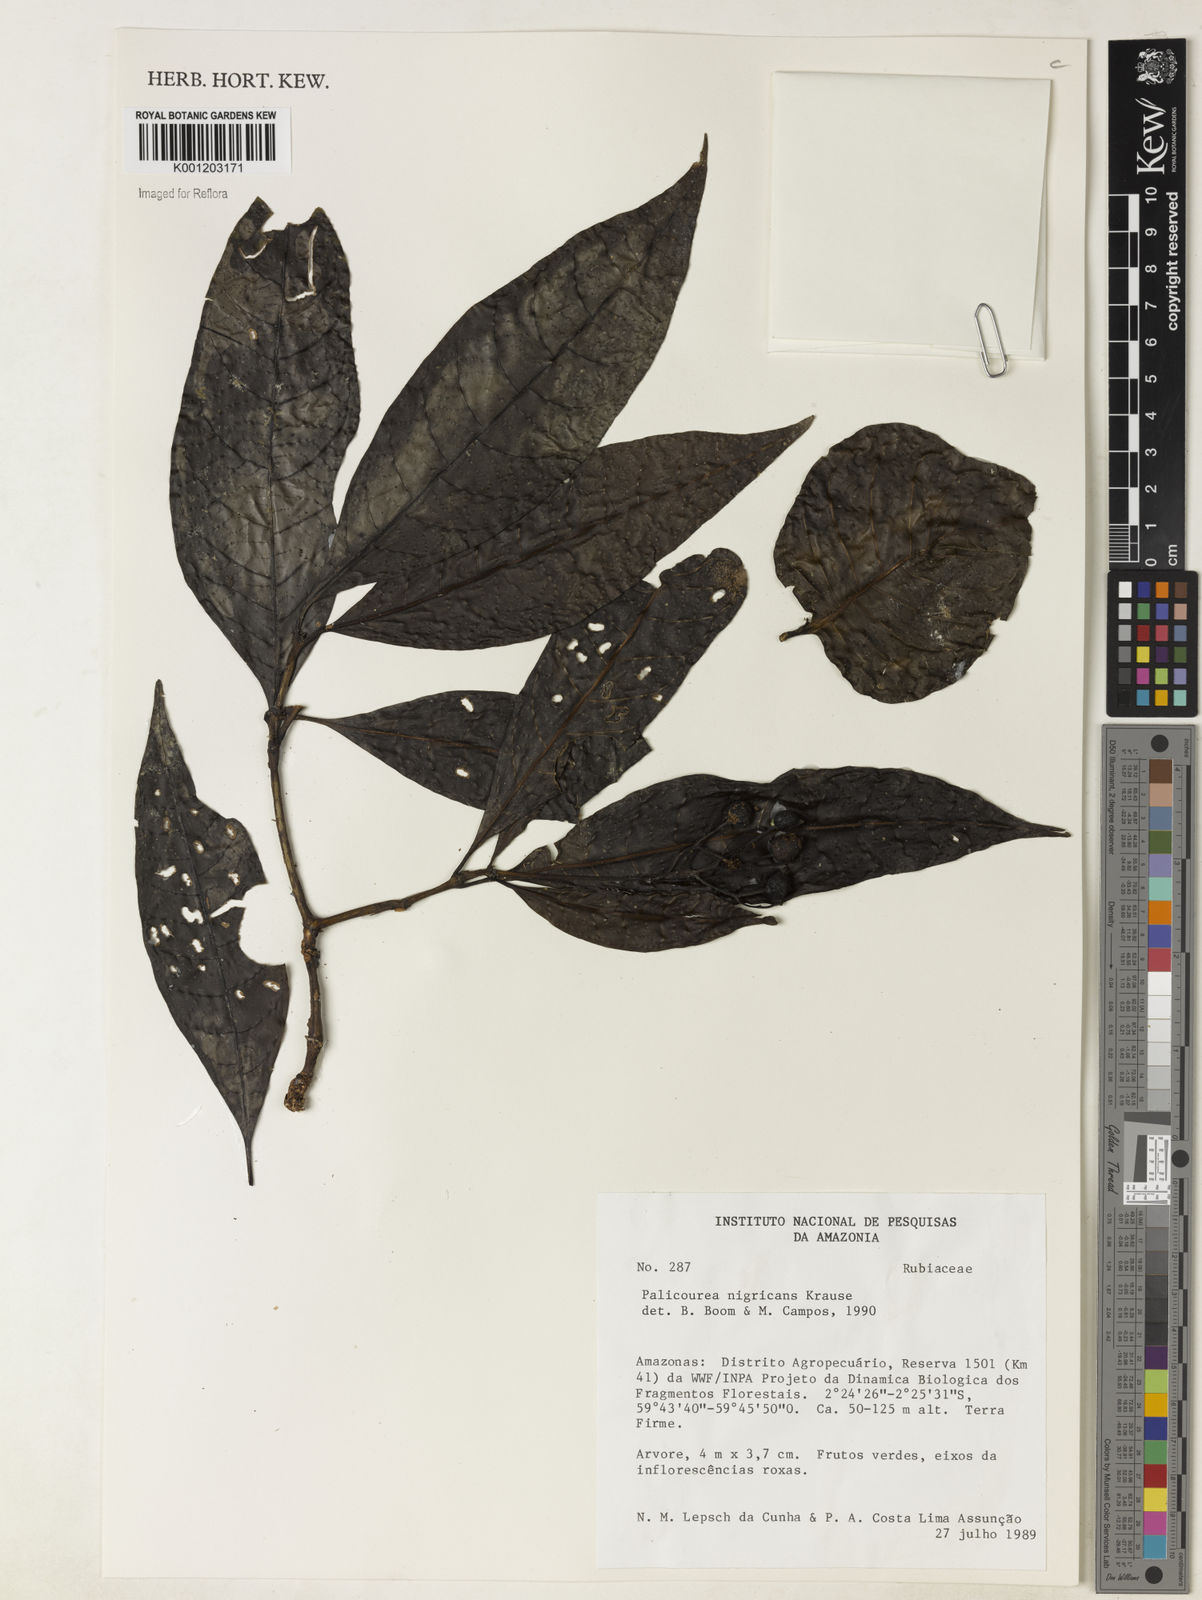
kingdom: Plantae
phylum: Tracheophyta
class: Magnoliopsida
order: Gentianales
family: Rubiaceae
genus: Palicourea
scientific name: Palicourea nigricans
